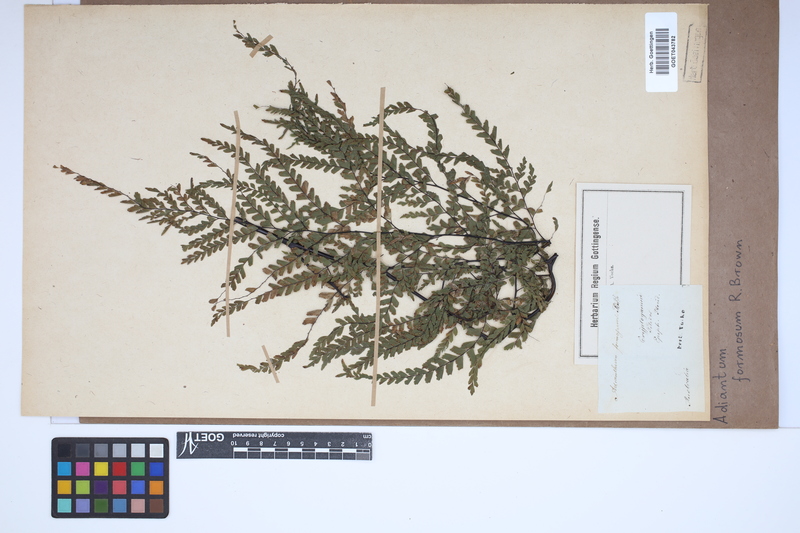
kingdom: Plantae
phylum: Tracheophyta
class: Polypodiopsida
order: Polypodiales
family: Pteridaceae
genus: Adiantum
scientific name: Adiantum formosum
